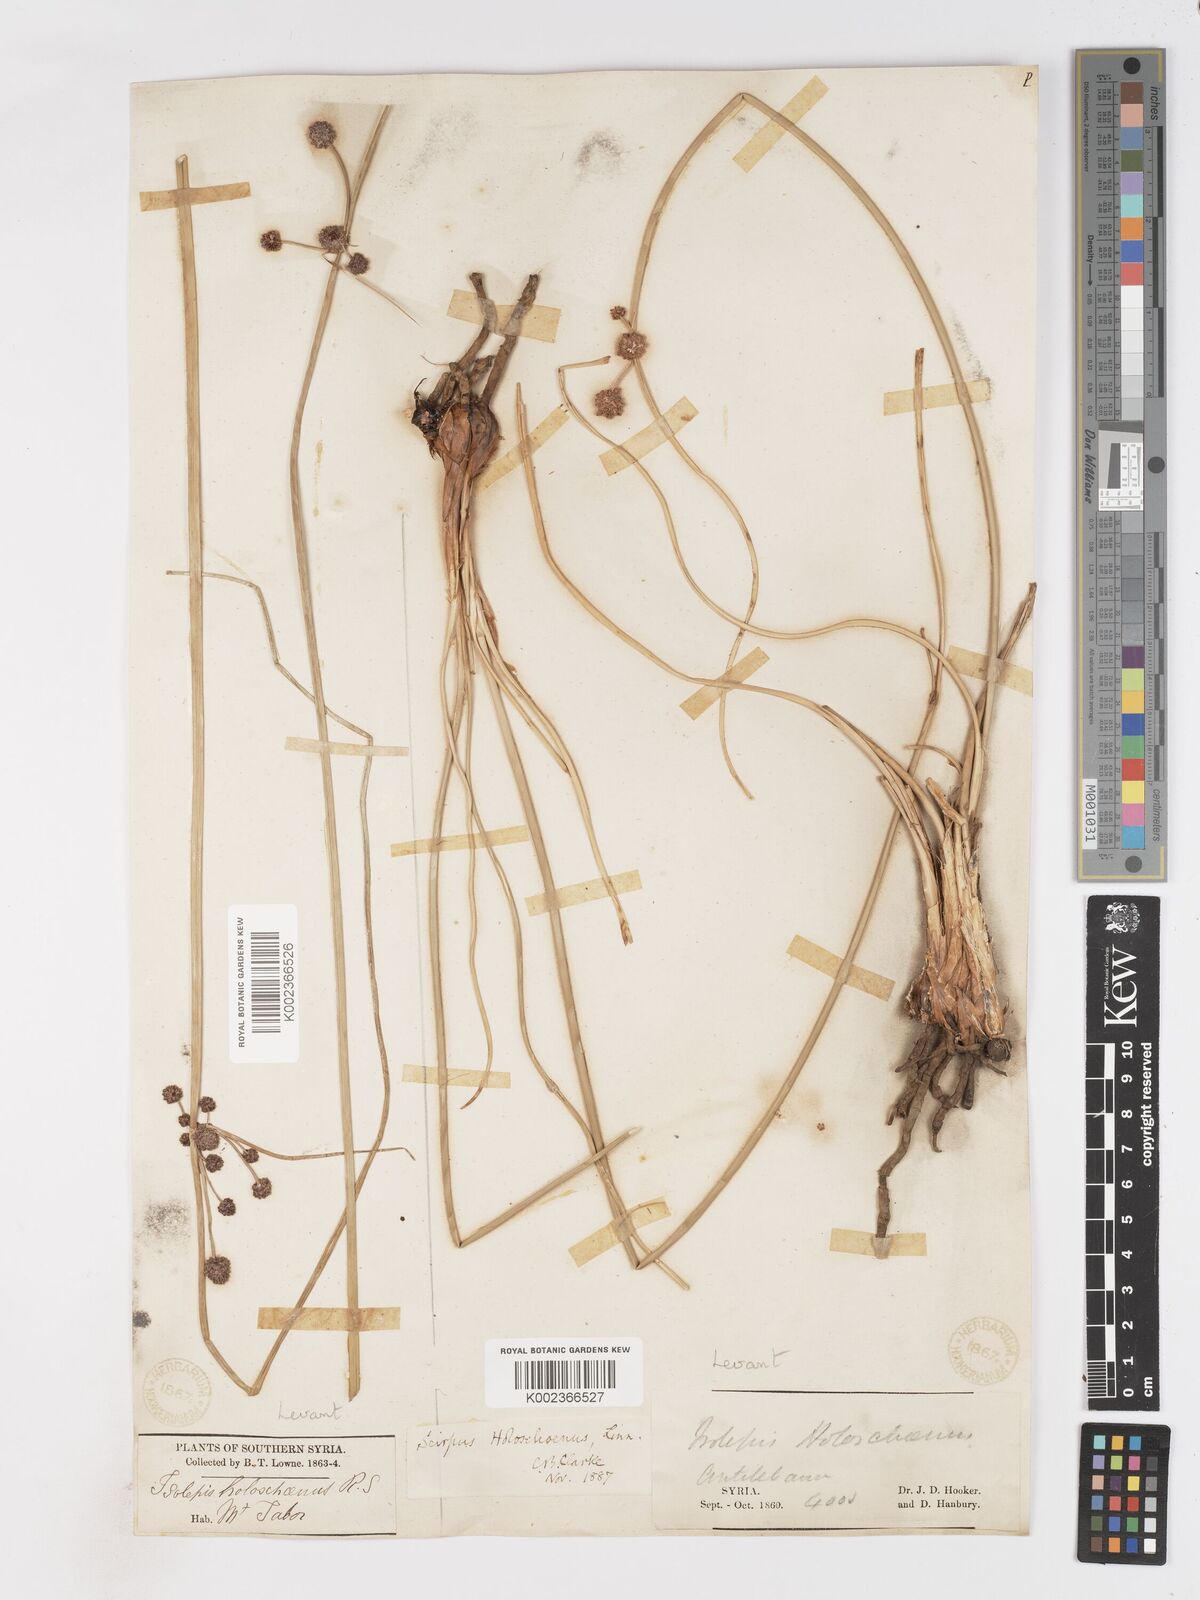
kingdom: Plantae
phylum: Tracheophyta
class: Liliopsida
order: Poales
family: Cyperaceae
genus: Scirpoides
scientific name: Scirpoides holoschoenus
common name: Round-headed club-rush
